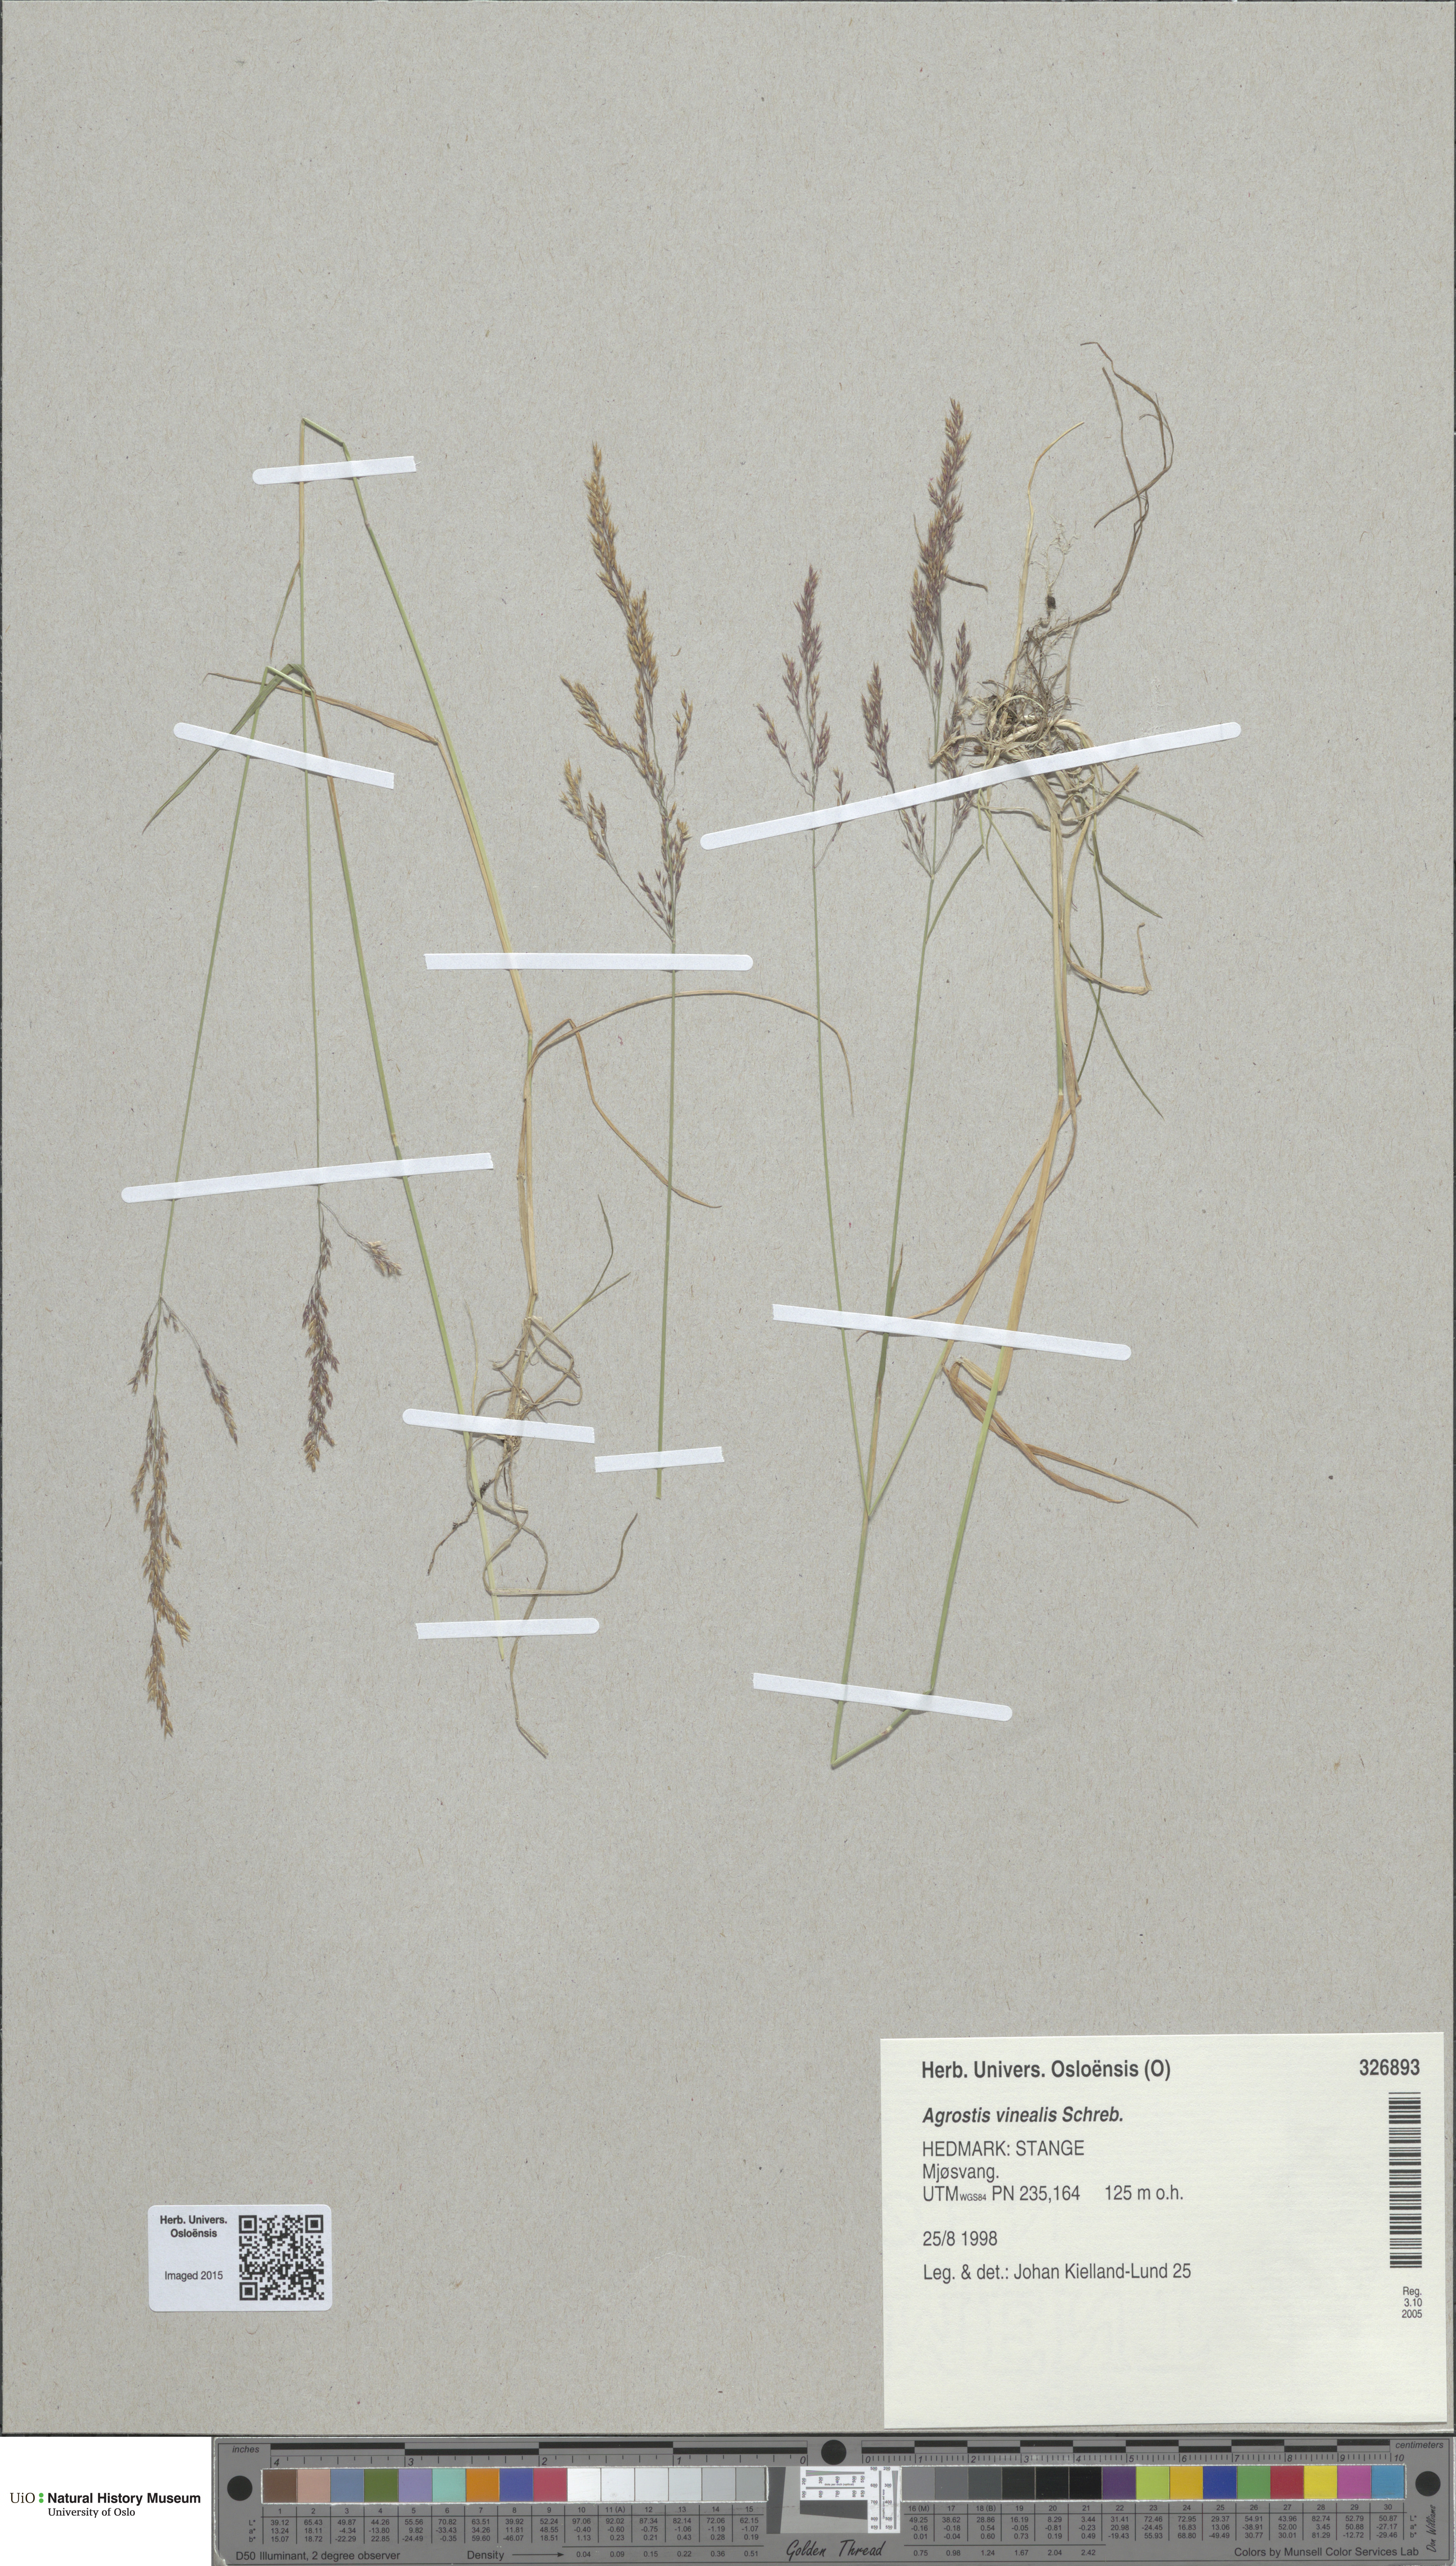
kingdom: Plantae
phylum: Tracheophyta
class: Liliopsida
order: Poales
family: Poaceae
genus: Agrostis
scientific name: Agrostis vinealis
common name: Brown bent
